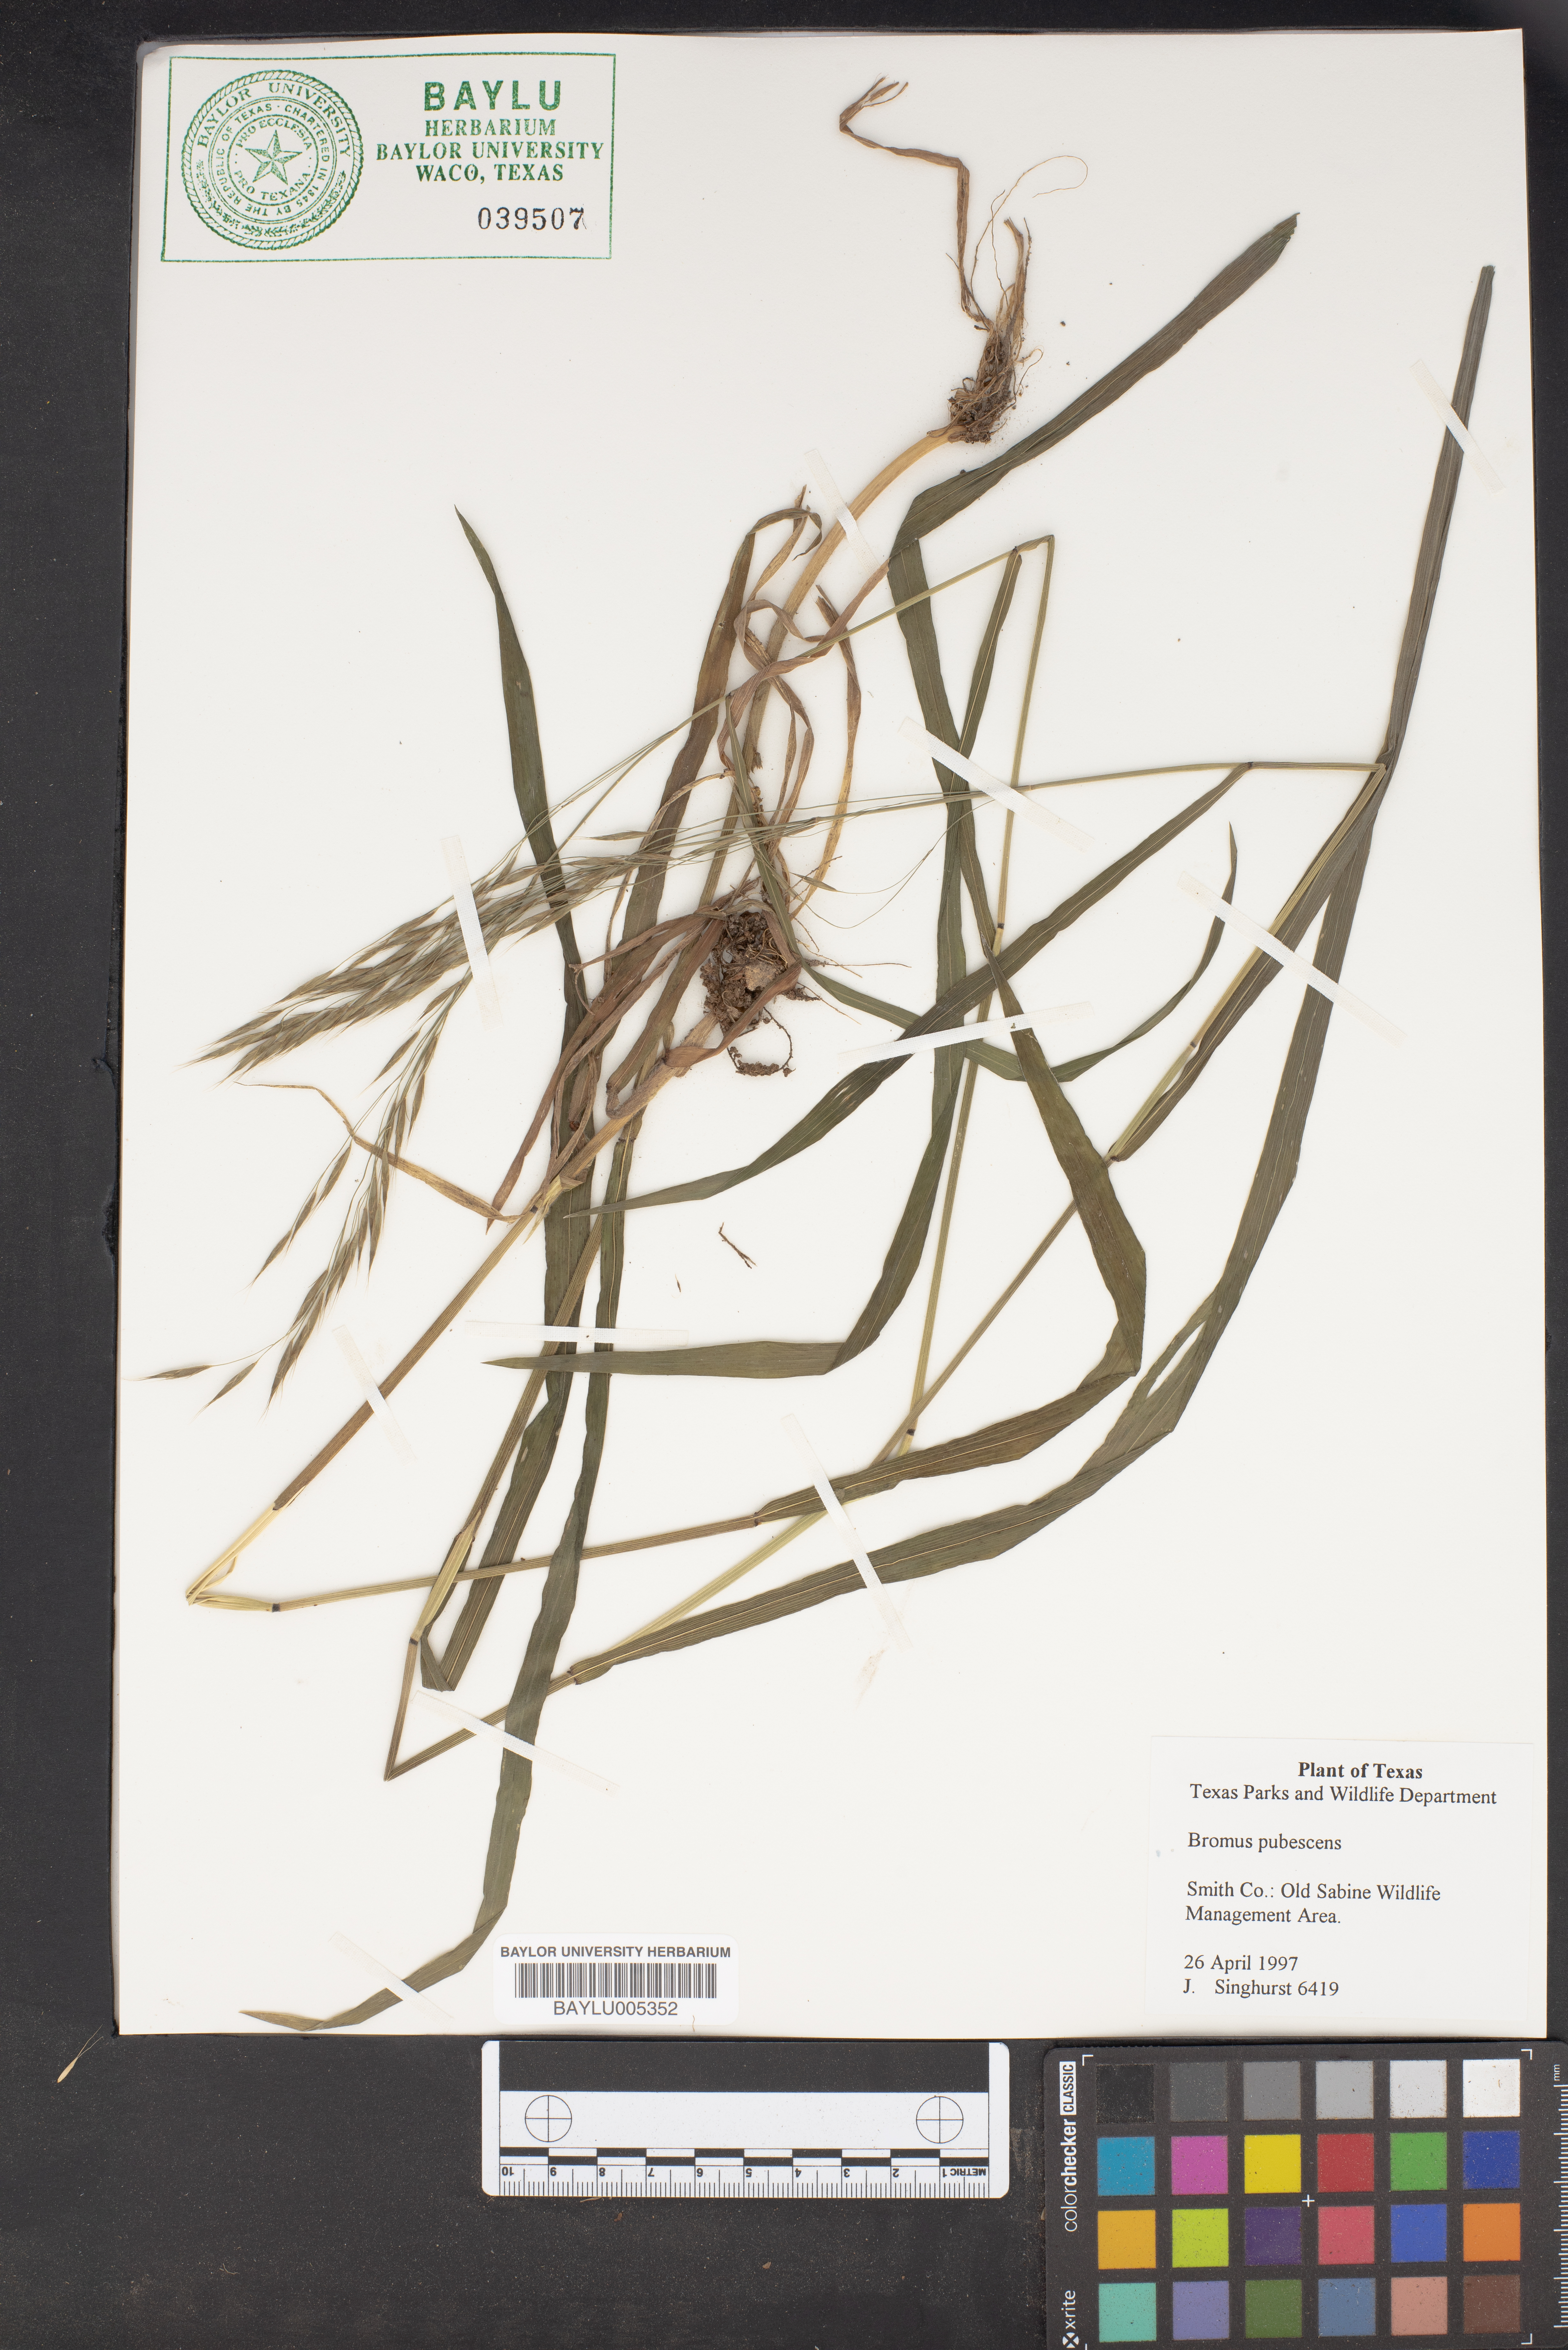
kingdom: Plantae
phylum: Tracheophyta
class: Liliopsida
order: Poales
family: Poaceae
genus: Bromus
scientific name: Bromus pubescens
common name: Hairy wood brome grass
